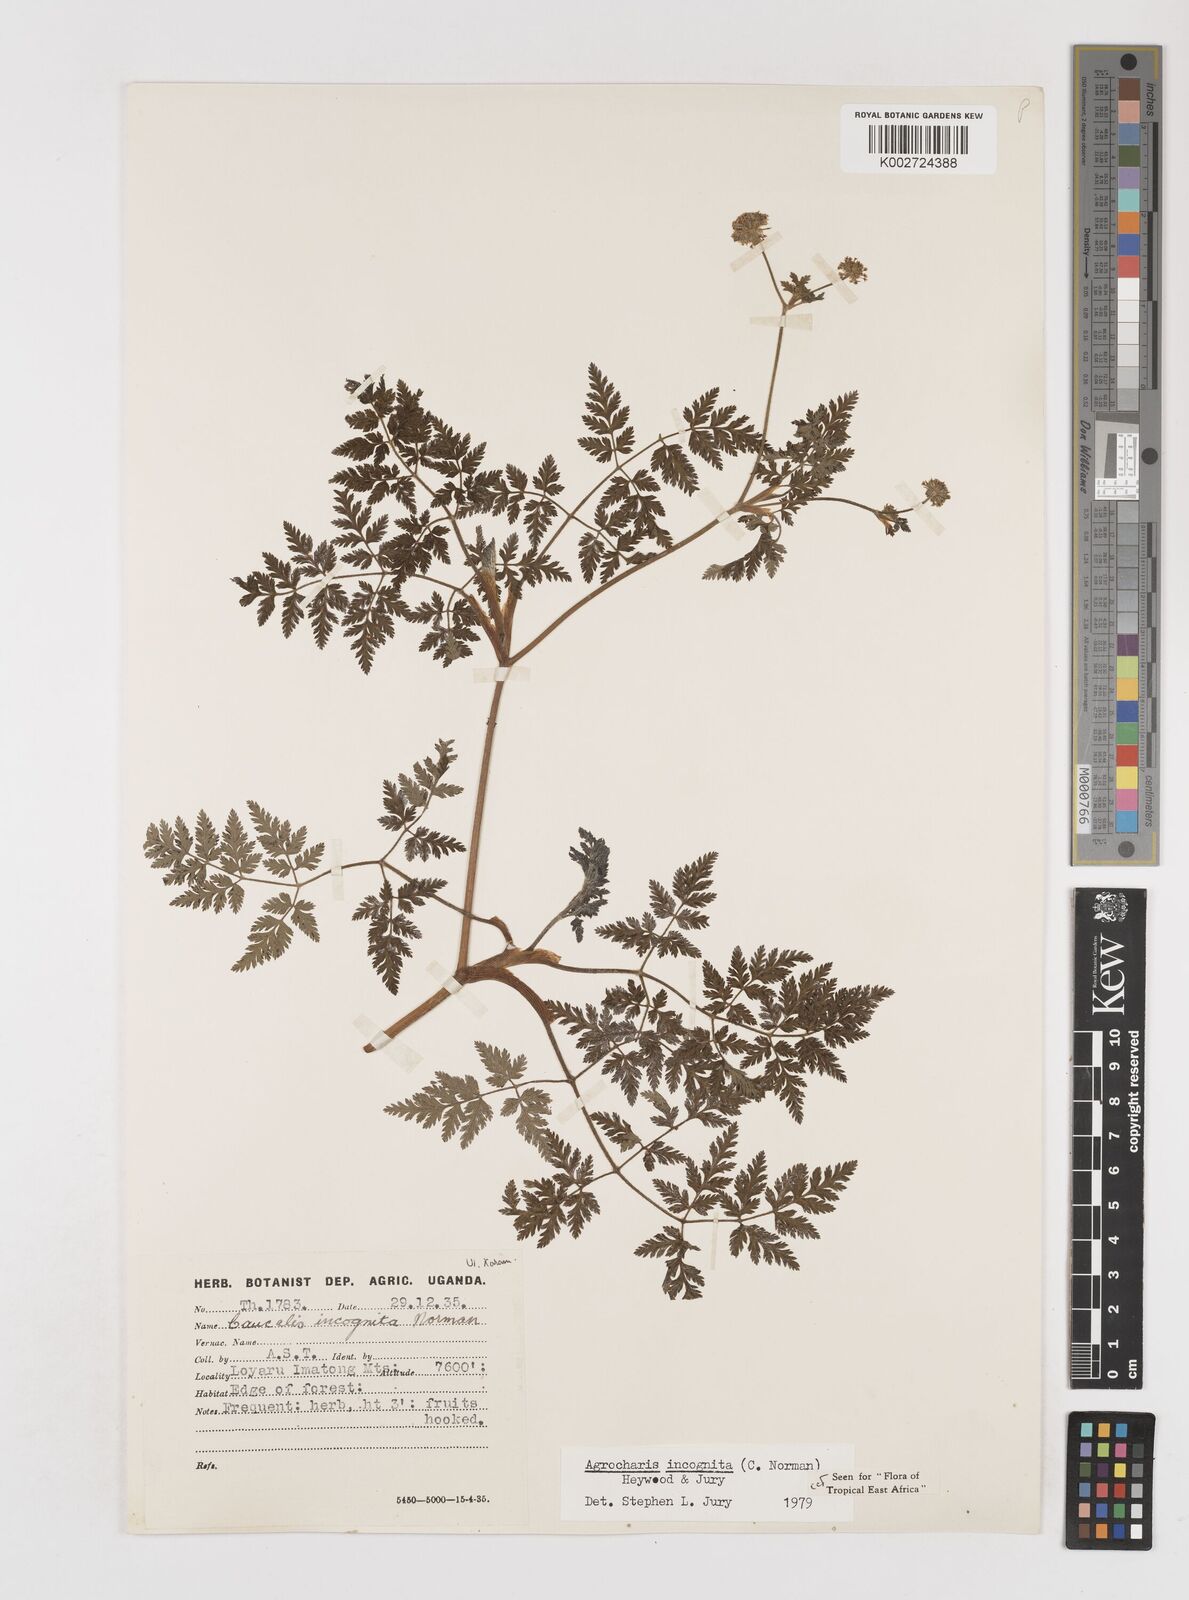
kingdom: Plantae
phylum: Tracheophyta
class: Magnoliopsida
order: Apiales
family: Apiaceae
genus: Daucus
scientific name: Daucus incognitus
